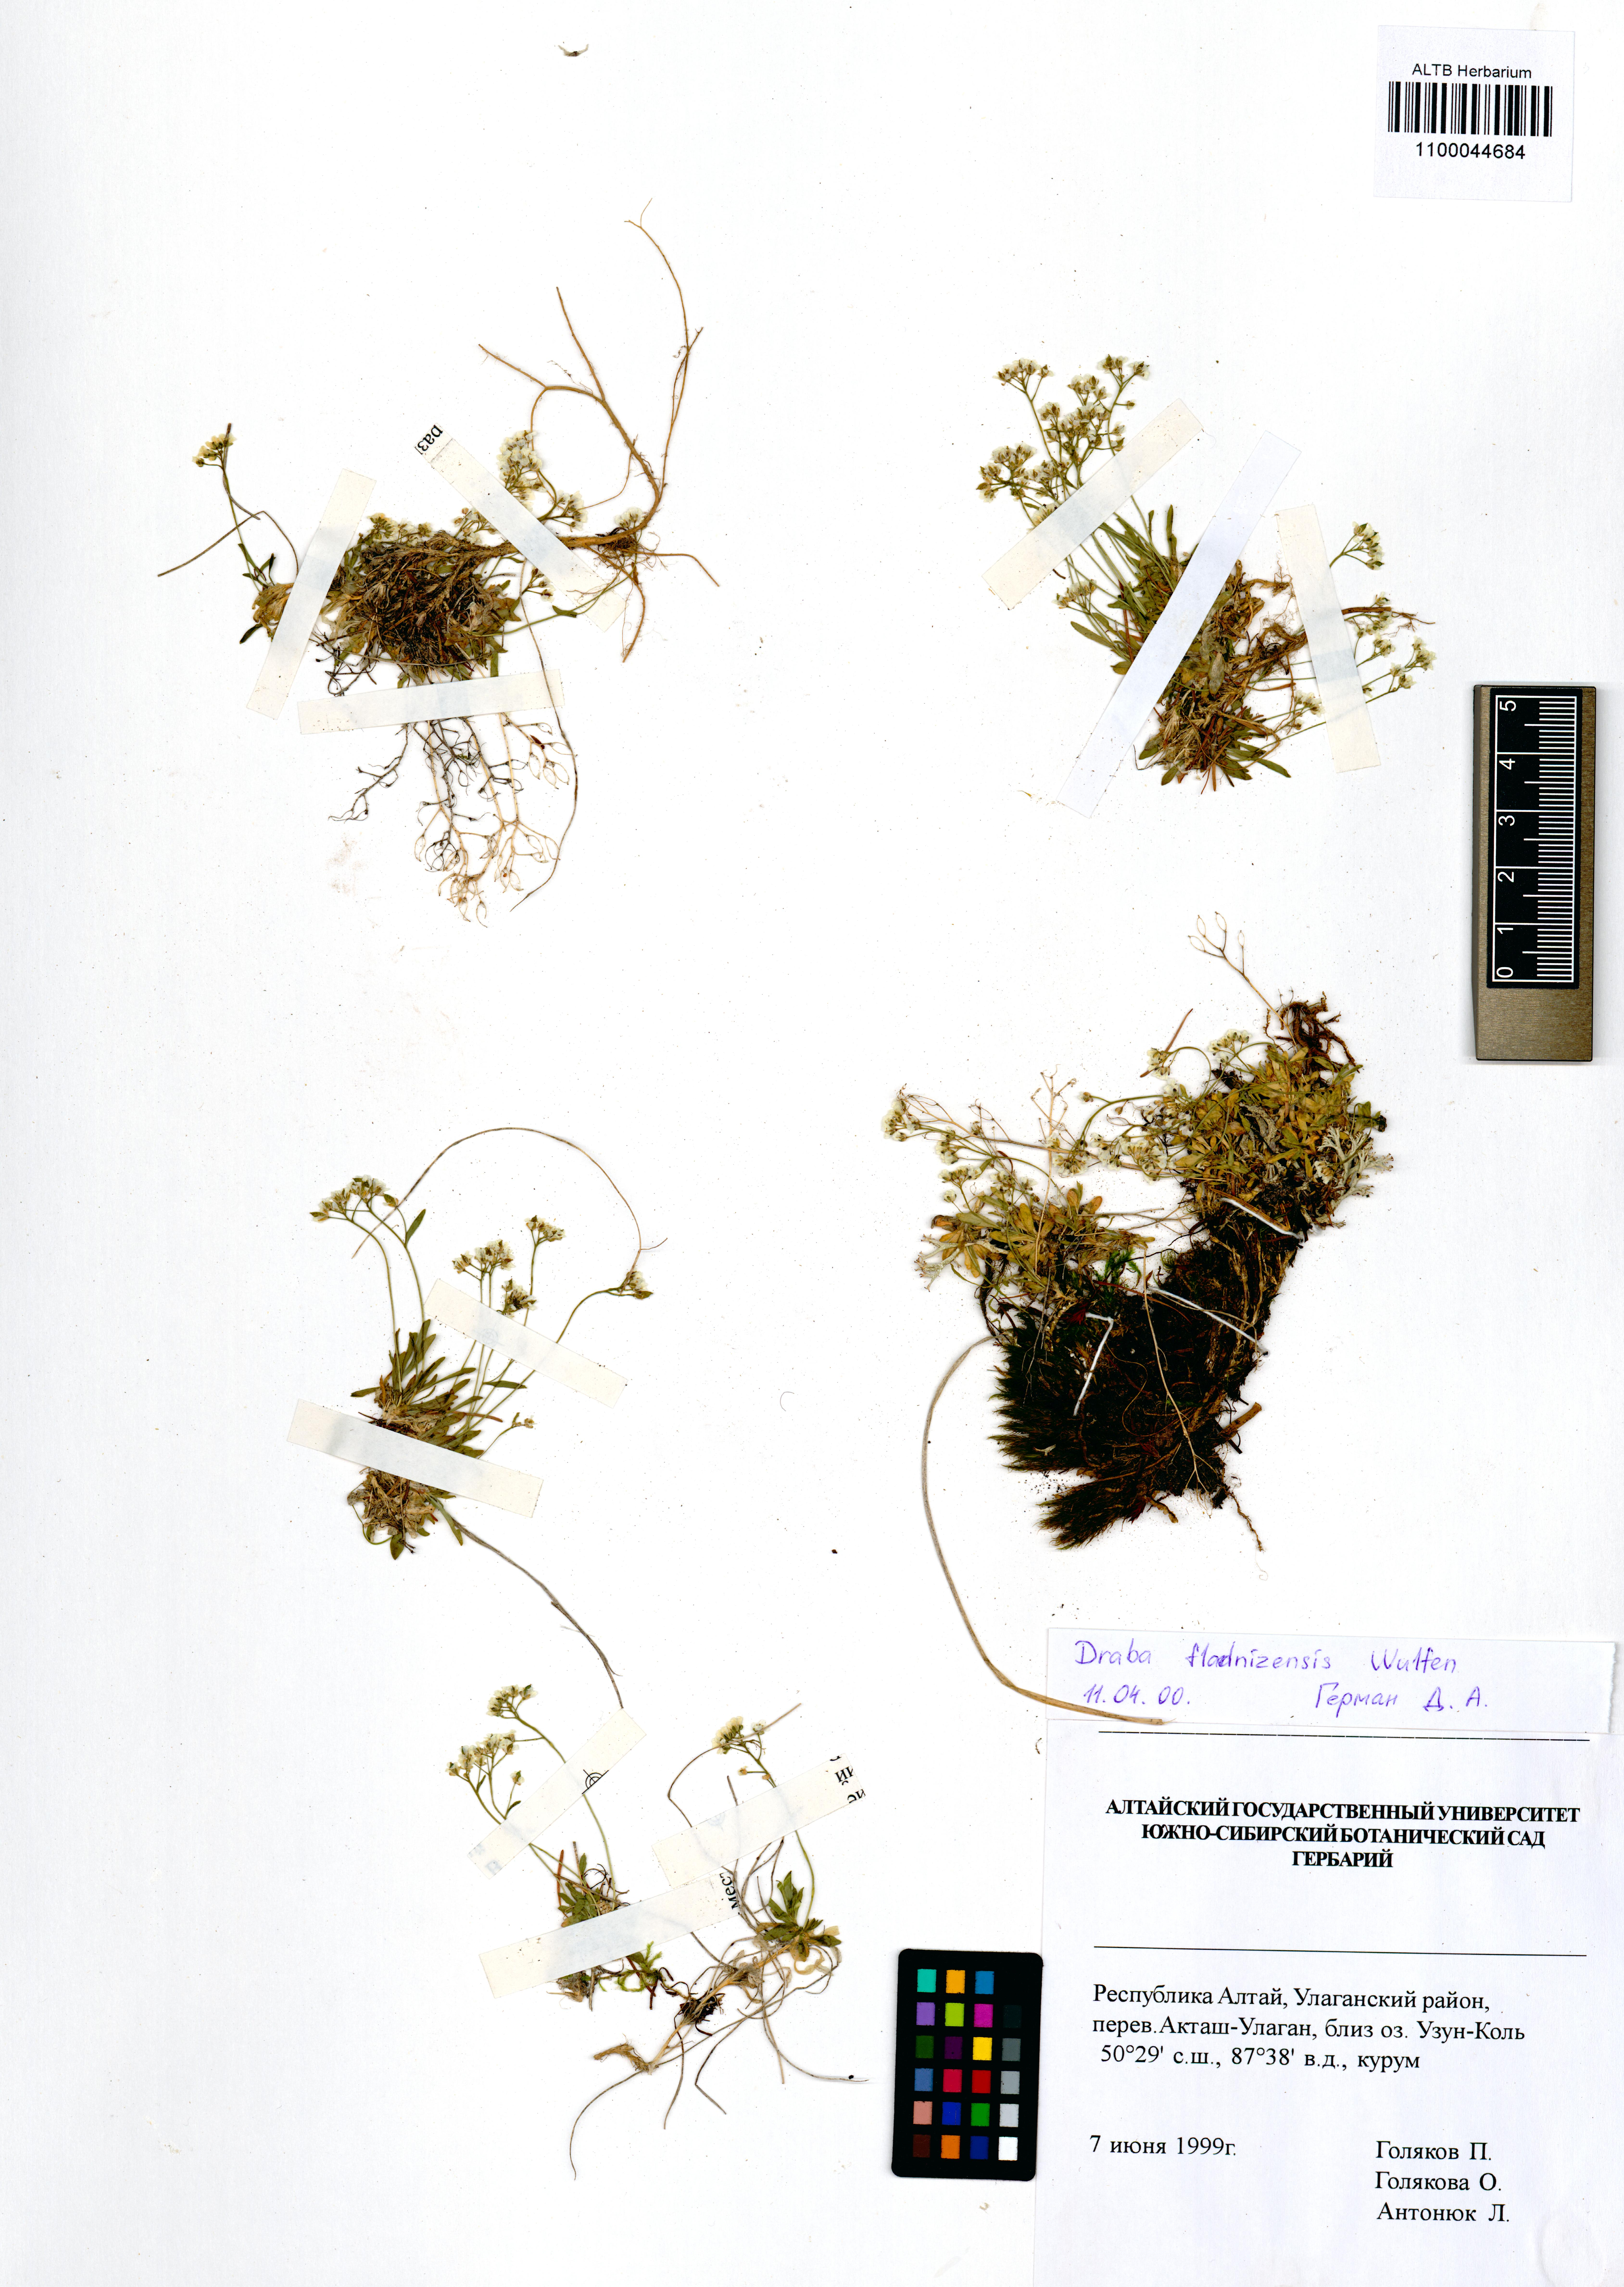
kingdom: Plantae
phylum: Tracheophyta
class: Magnoliopsida
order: Brassicales
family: Brassicaceae
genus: Draba
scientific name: Draba fladnizensis
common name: Austrian draba
